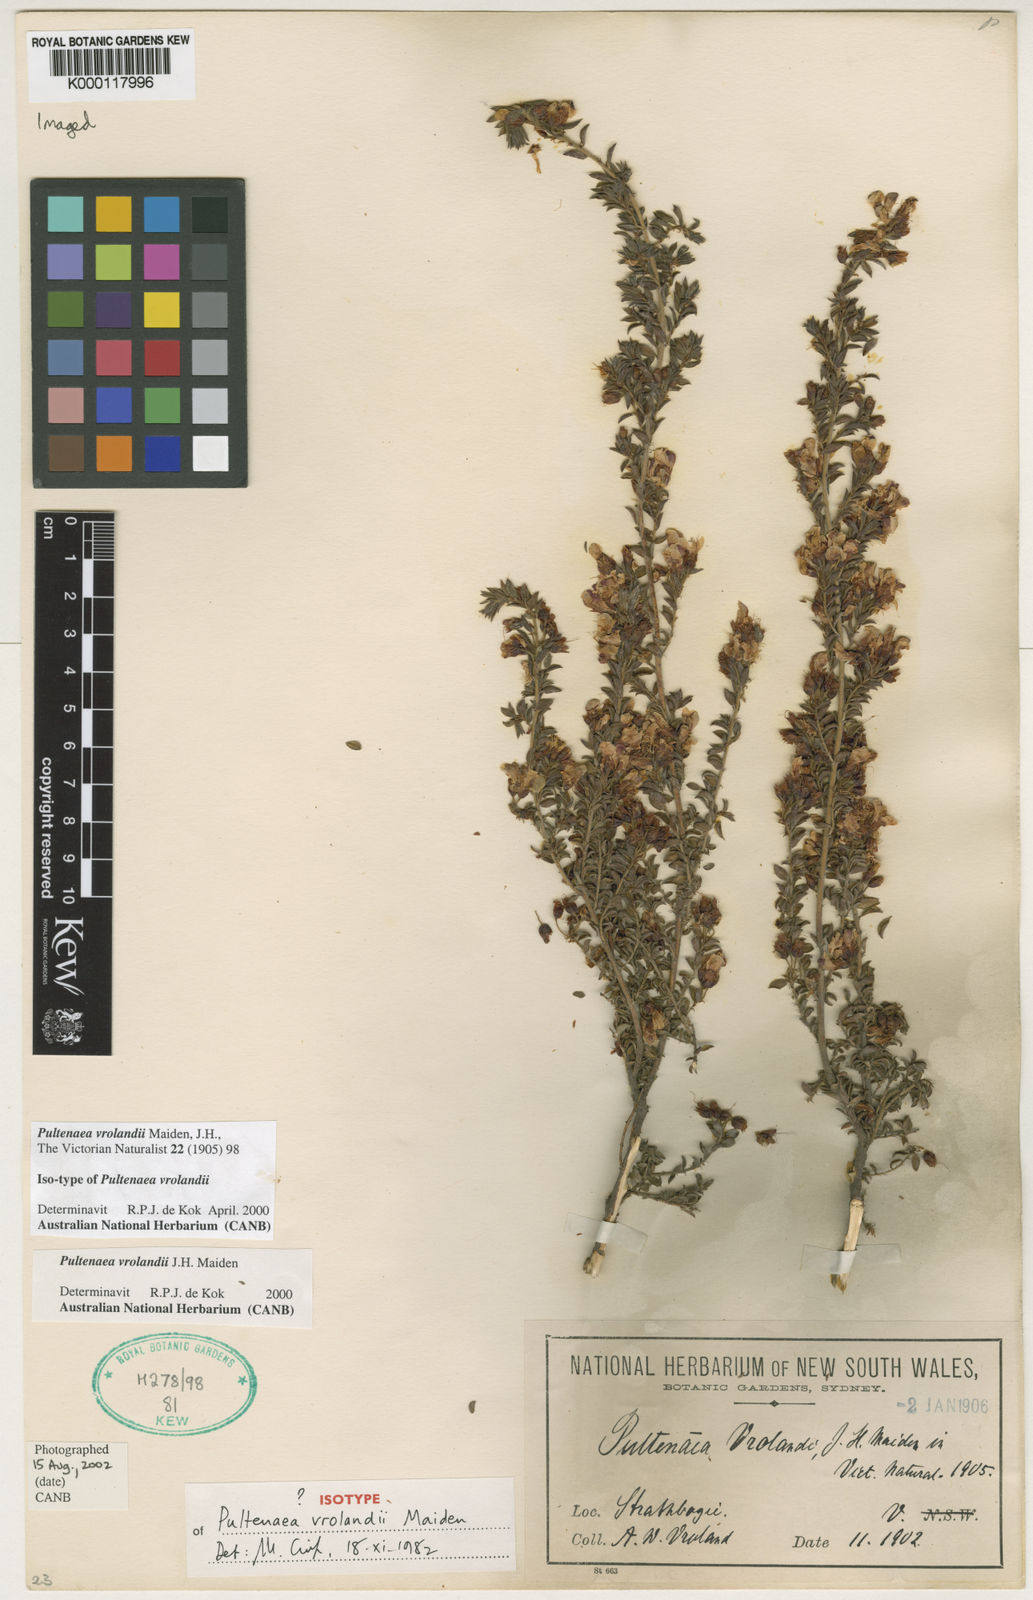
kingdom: Plantae
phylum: Tracheophyta
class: Magnoliopsida
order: Fabales
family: Fabaceae
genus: Pultenaea
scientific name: Pultenaea vrolandii
